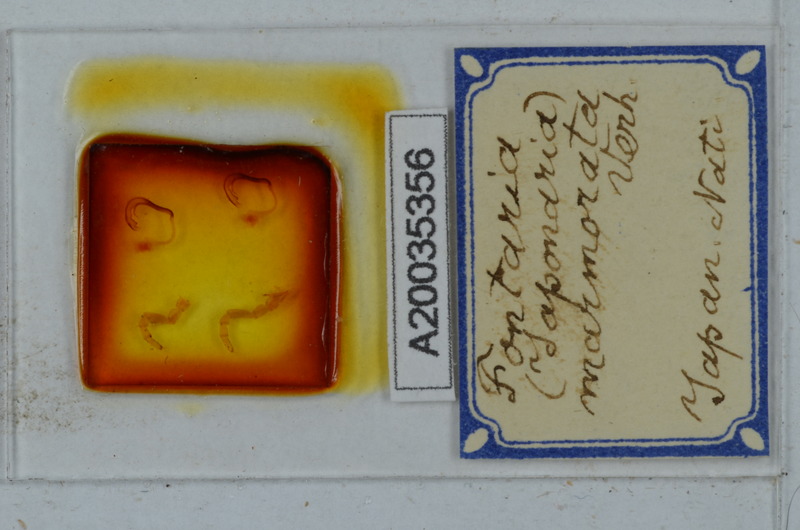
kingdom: Animalia
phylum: Arthropoda
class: Diplopoda
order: Polydesmida
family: Xystodesmidae
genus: Parafontaria
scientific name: Parafontaria tonominea
